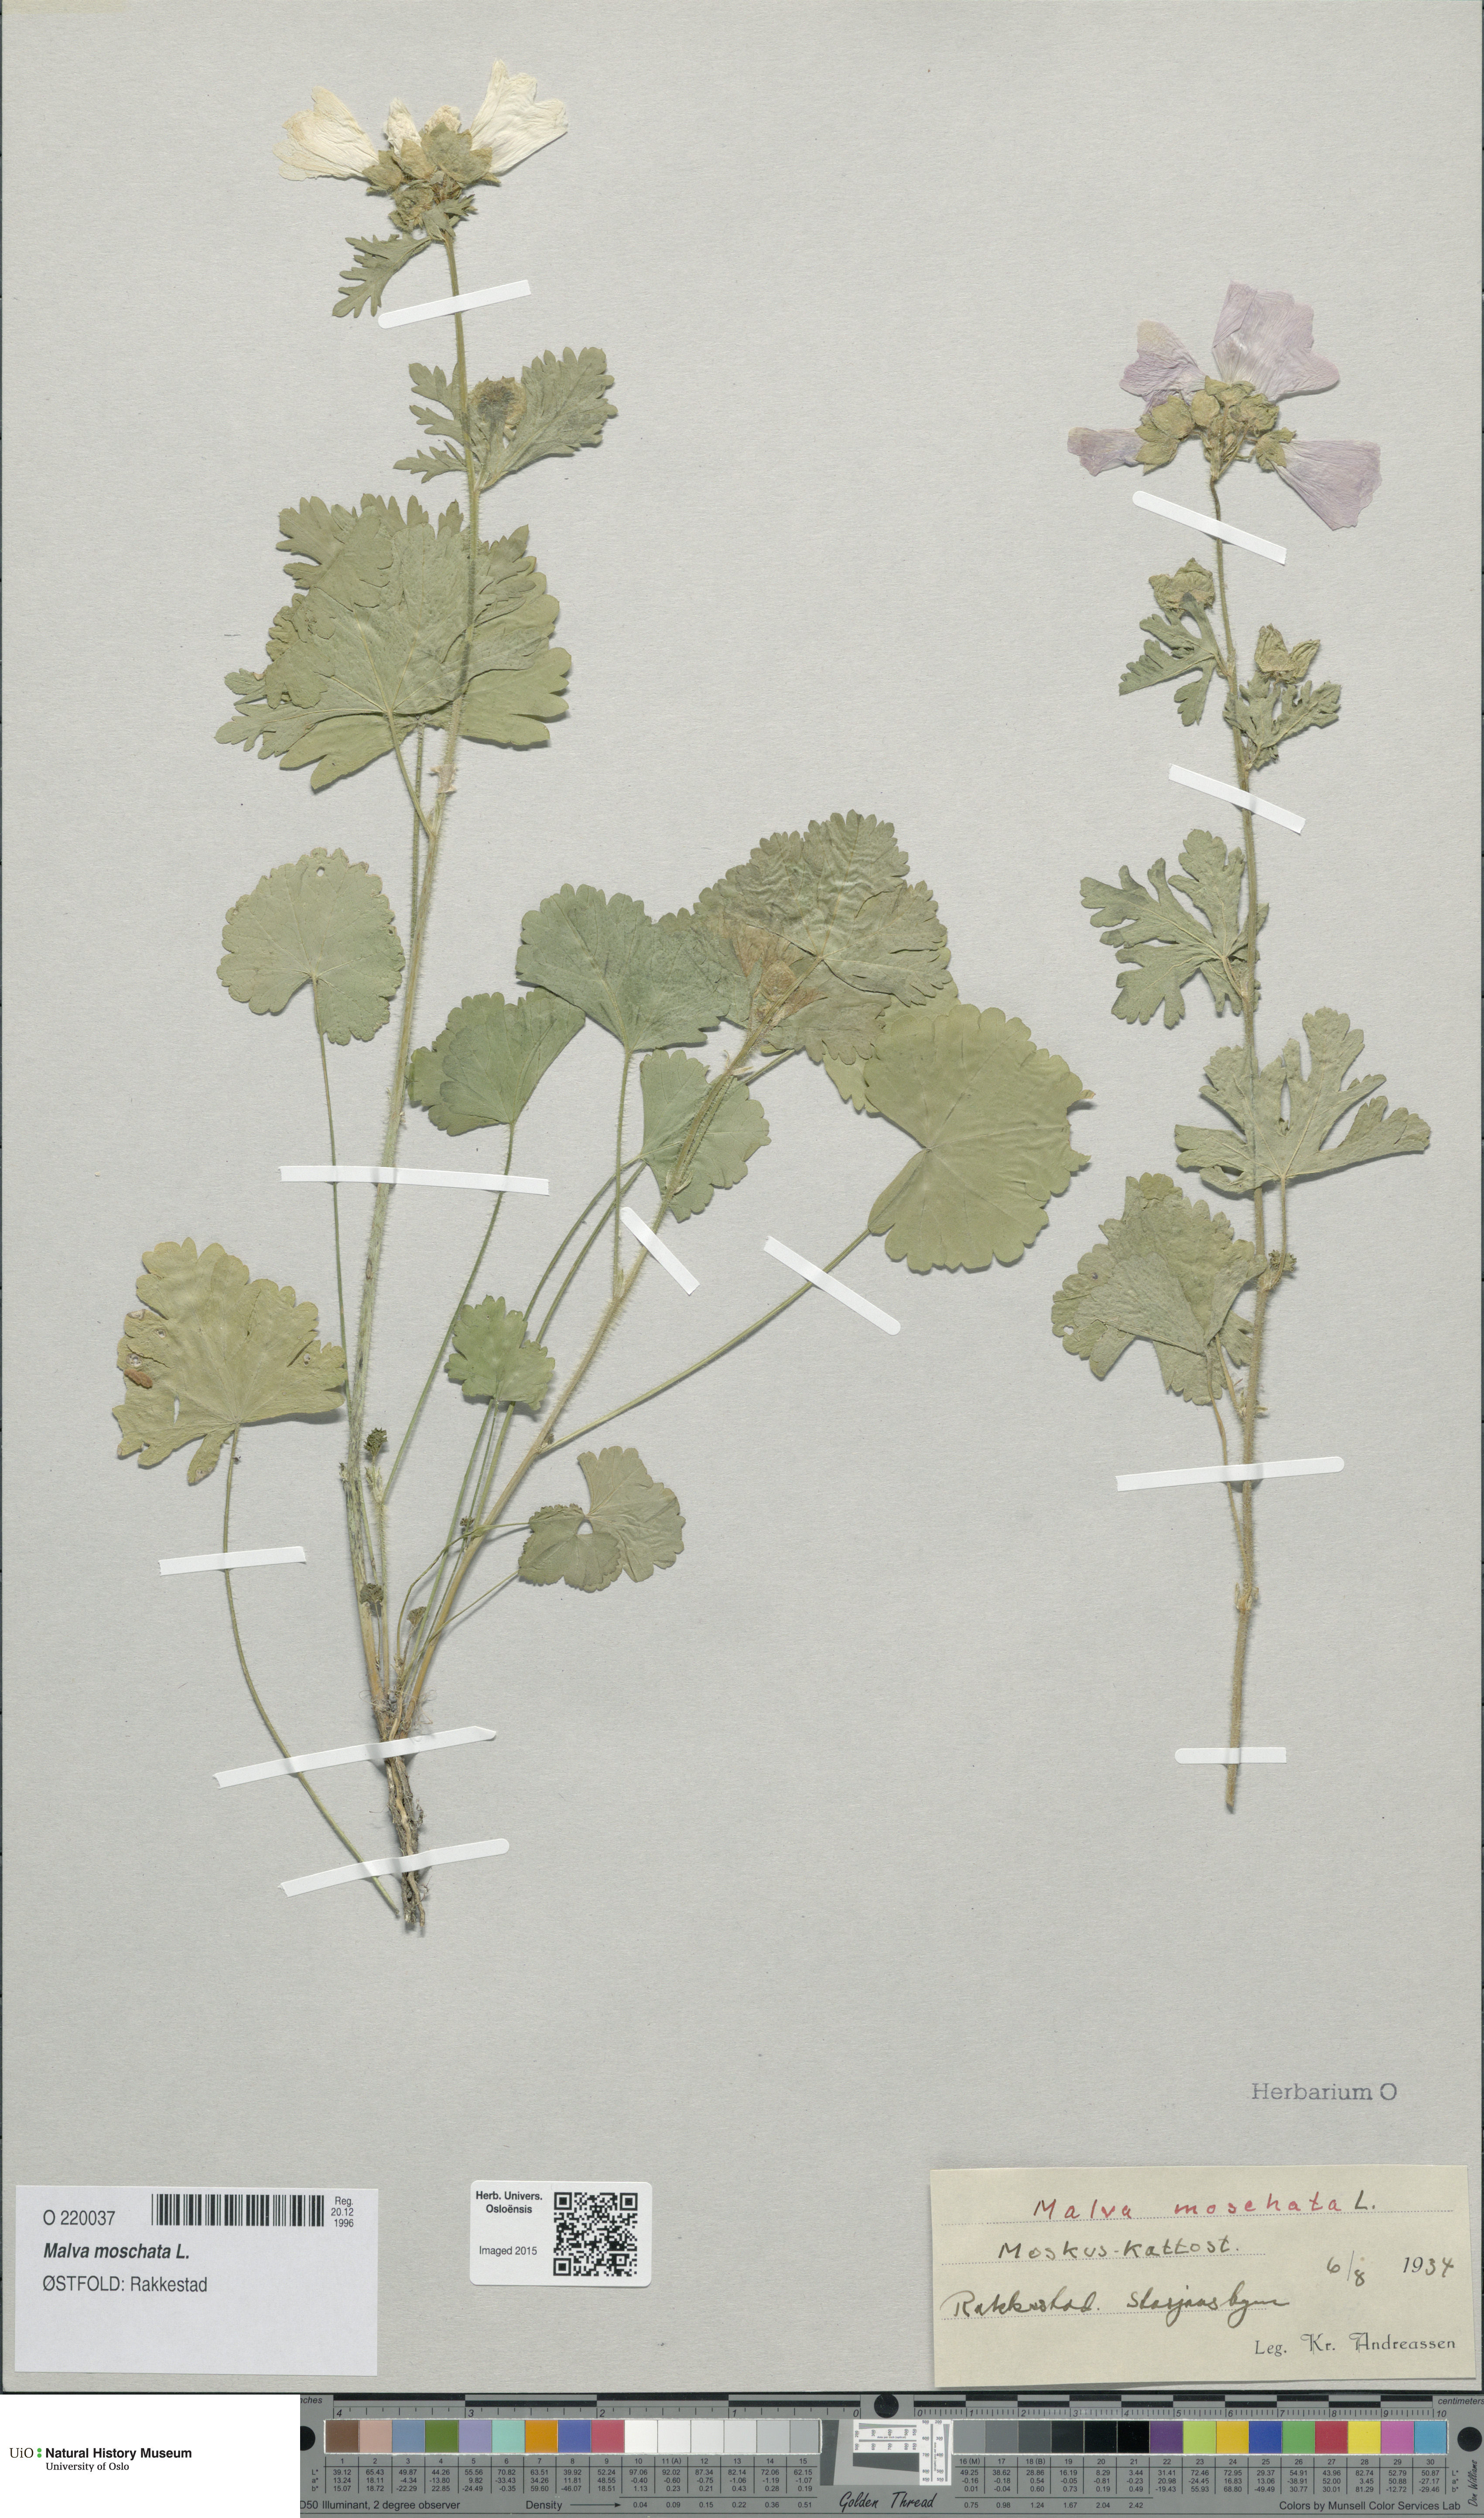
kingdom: Plantae
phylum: Tracheophyta
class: Magnoliopsida
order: Malvales
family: Malvaceae
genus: Malva
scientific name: Malva moschata
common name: Musk mallow
